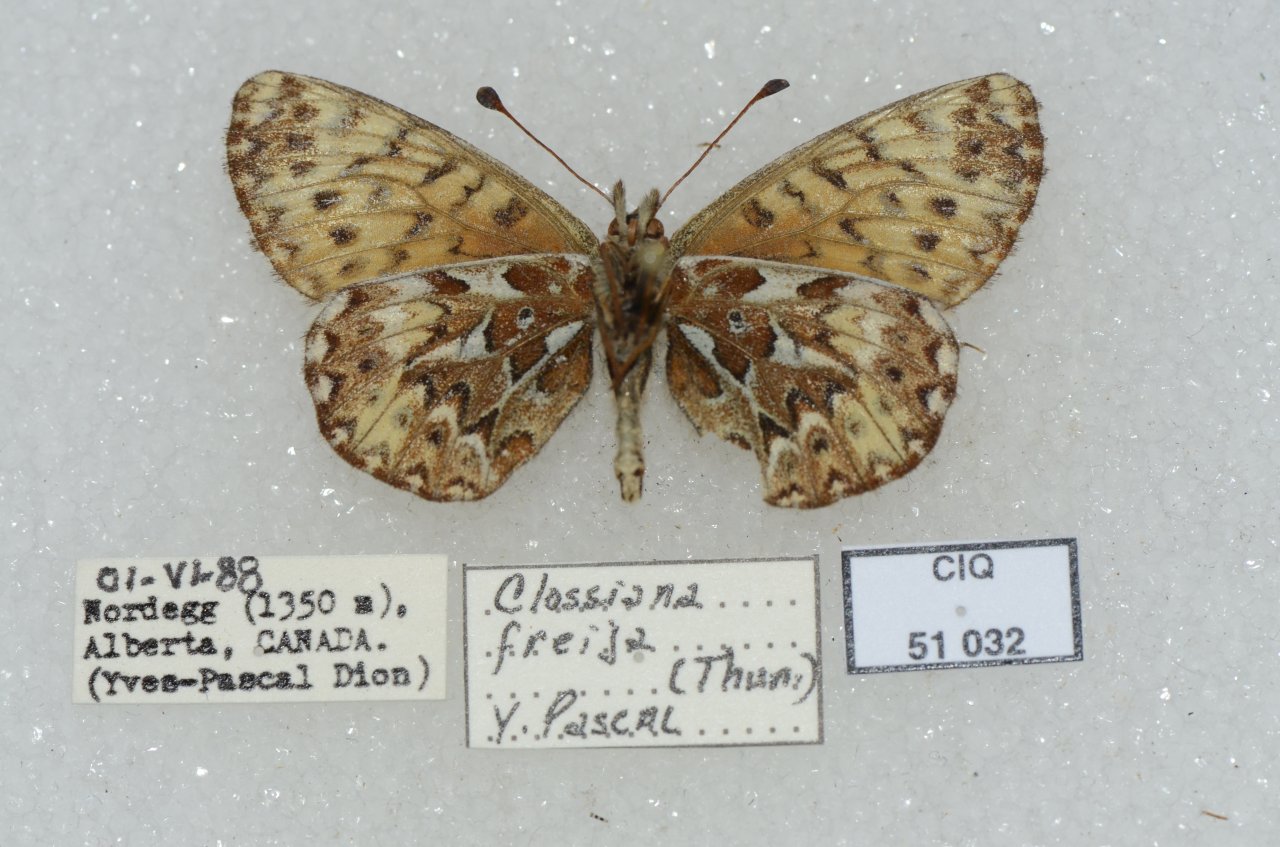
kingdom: Animalia
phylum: Arthropoda
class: Insecta
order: Lepidoptera
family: Nymphalidae
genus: Boloria
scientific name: Boloria freija
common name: Freija Fritillary
